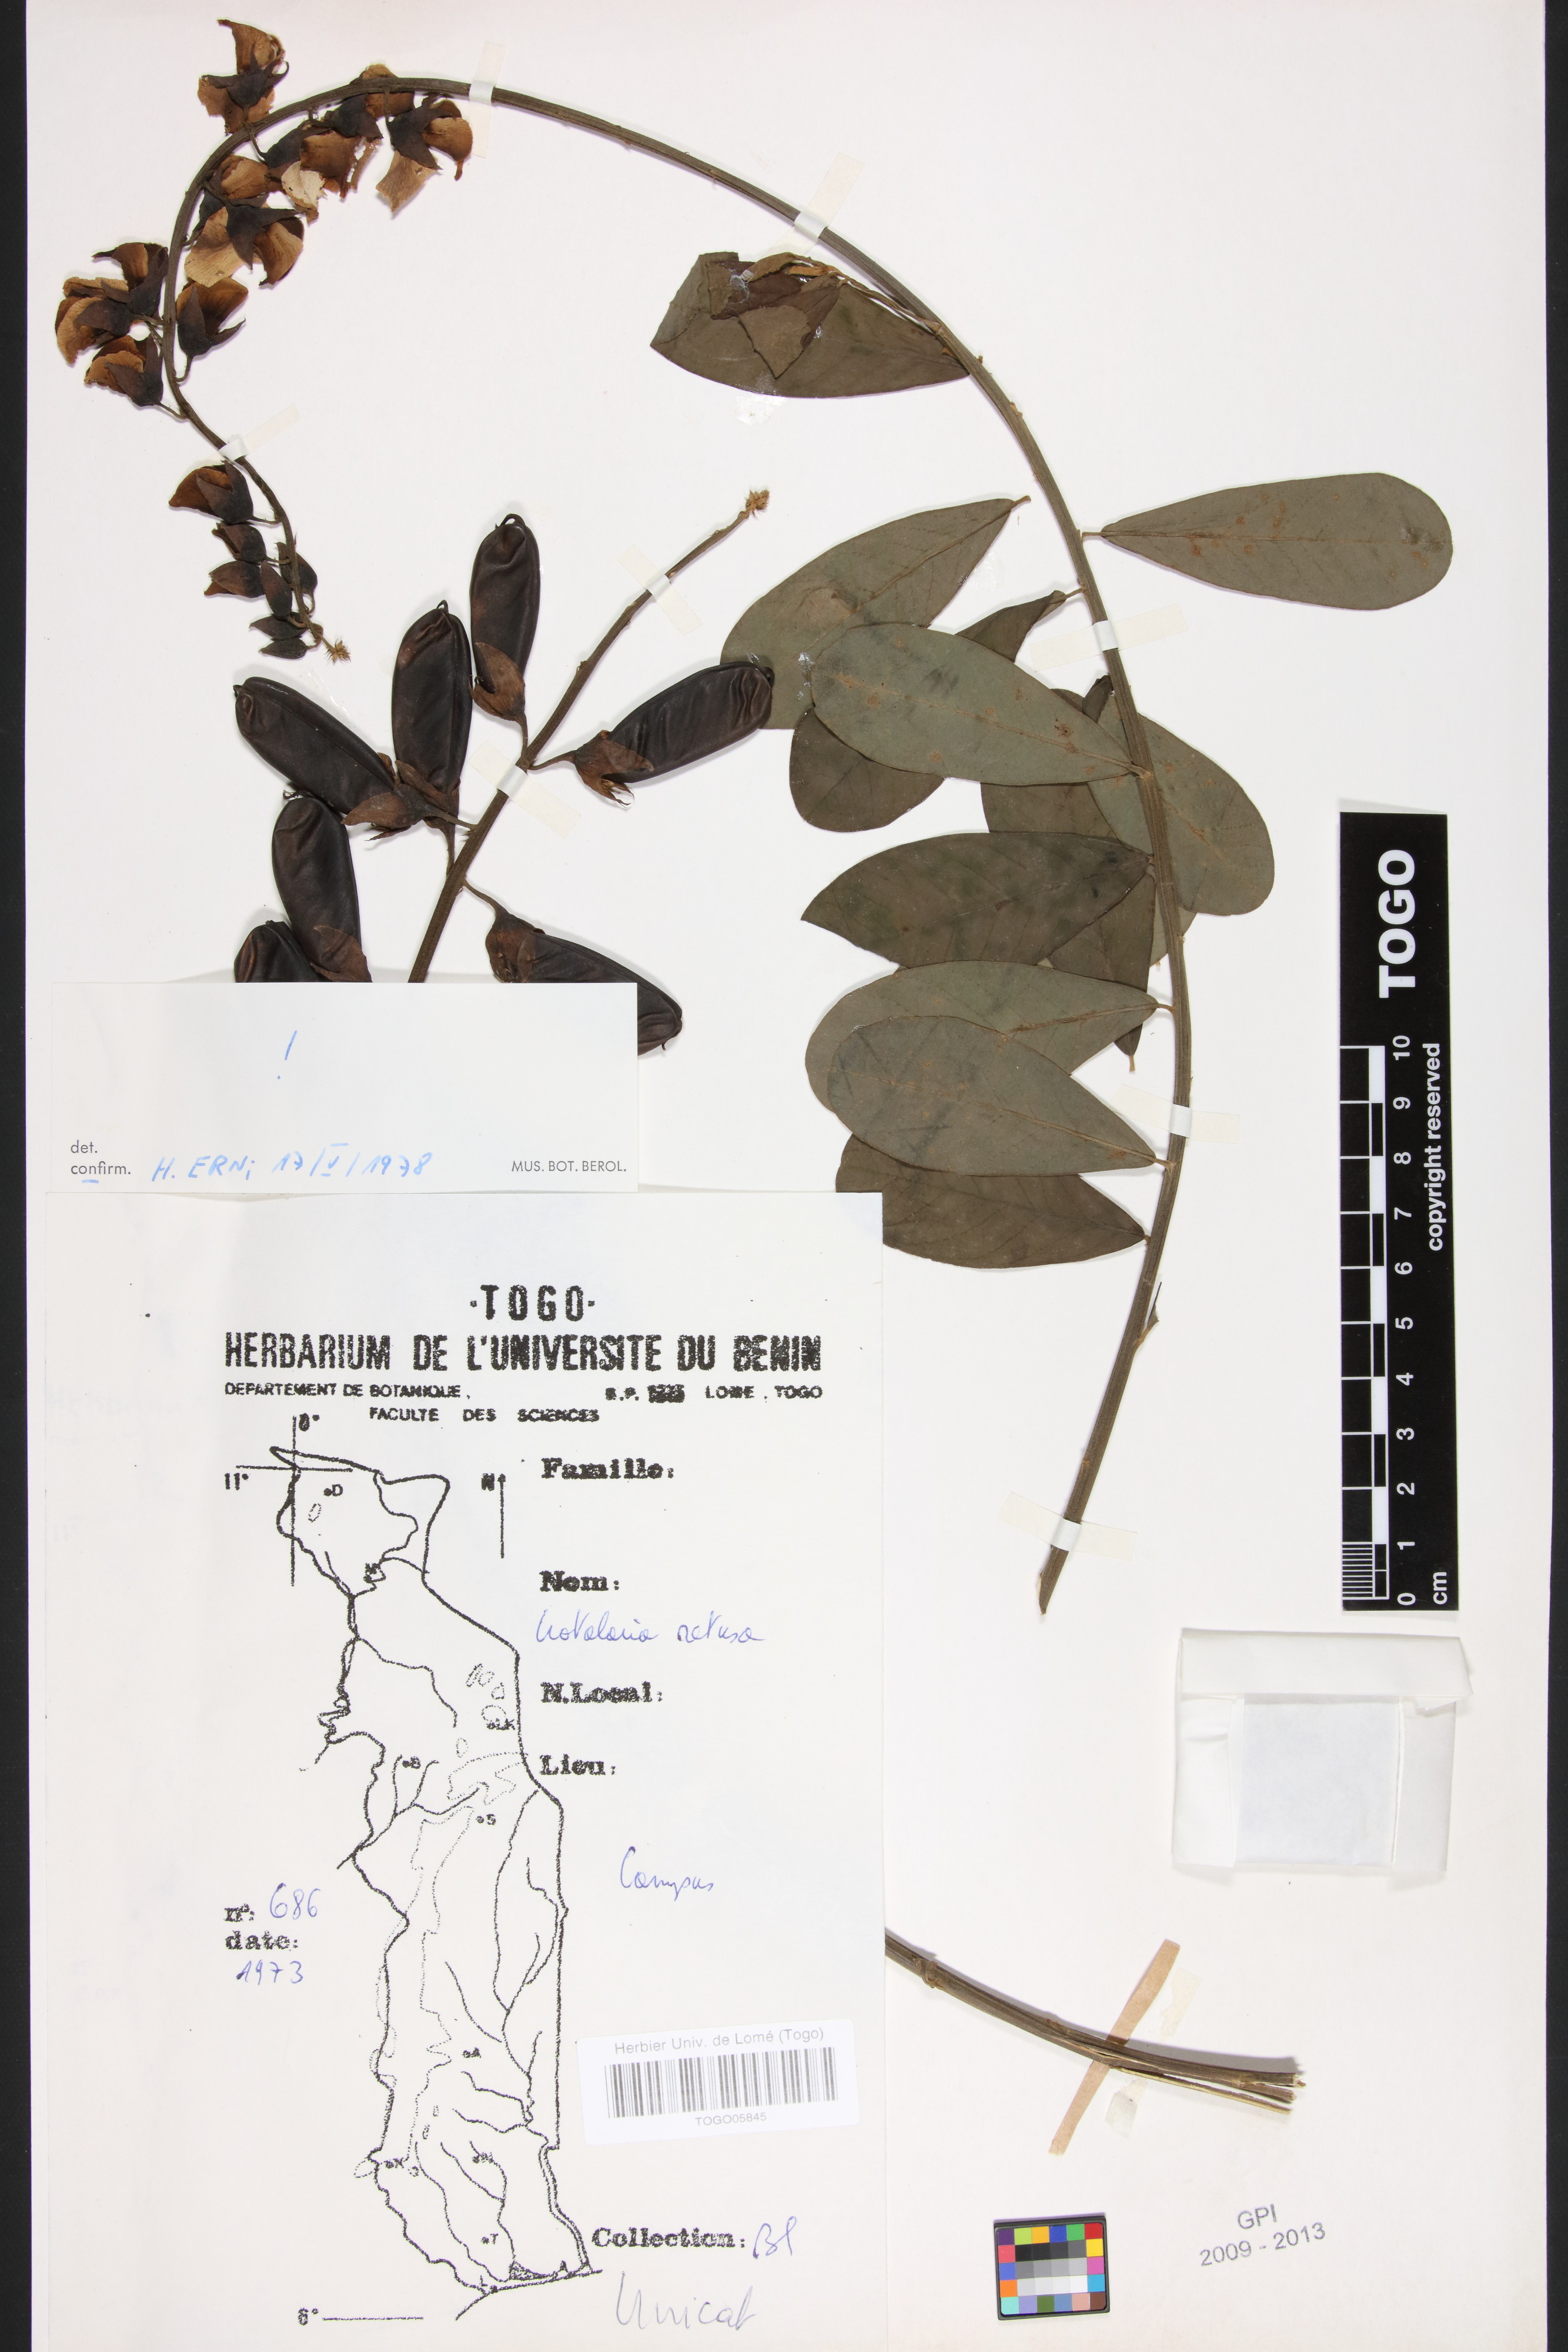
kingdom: Plantae
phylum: Tracheophyta
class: Magnoliopsida
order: Fabales
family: Fabaceae
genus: Crotalaria
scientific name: Crotalaria retusa
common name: Rattleweed
